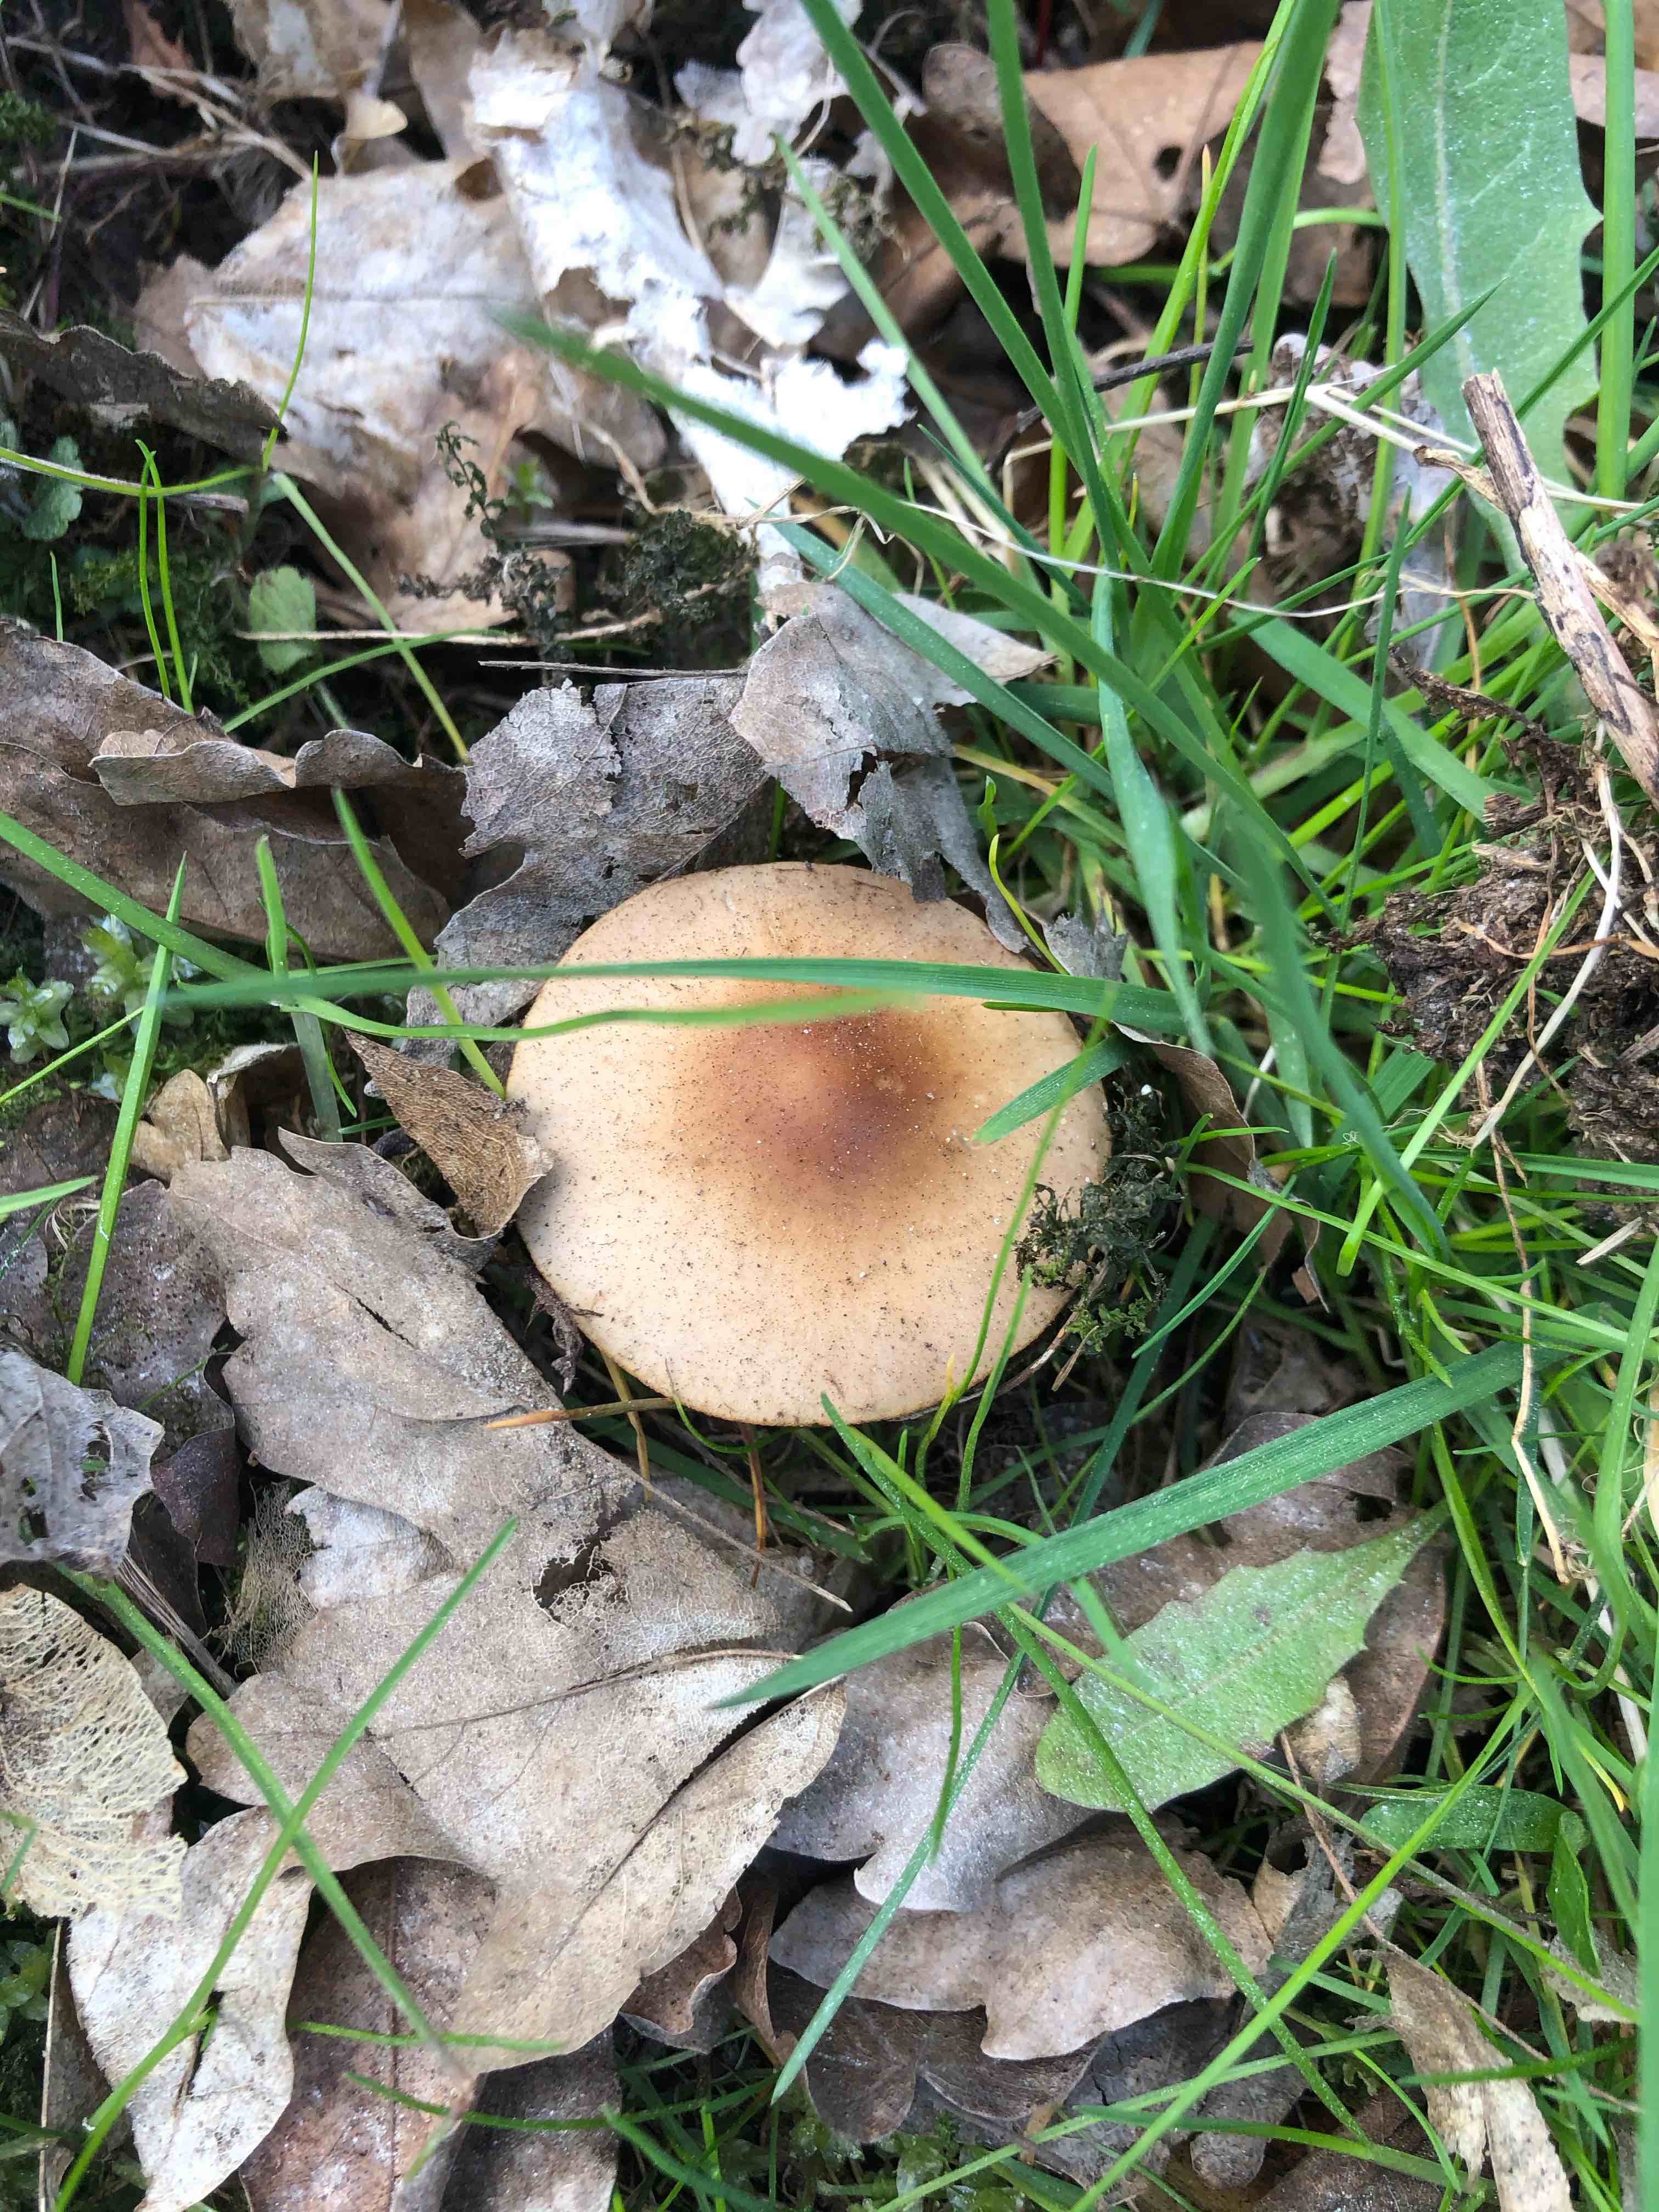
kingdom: Fungi
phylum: Basidiomycota
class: Agaricomycetes
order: Agaricales
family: Psathyrellaceae
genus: Psathyrella
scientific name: Psathyrella
